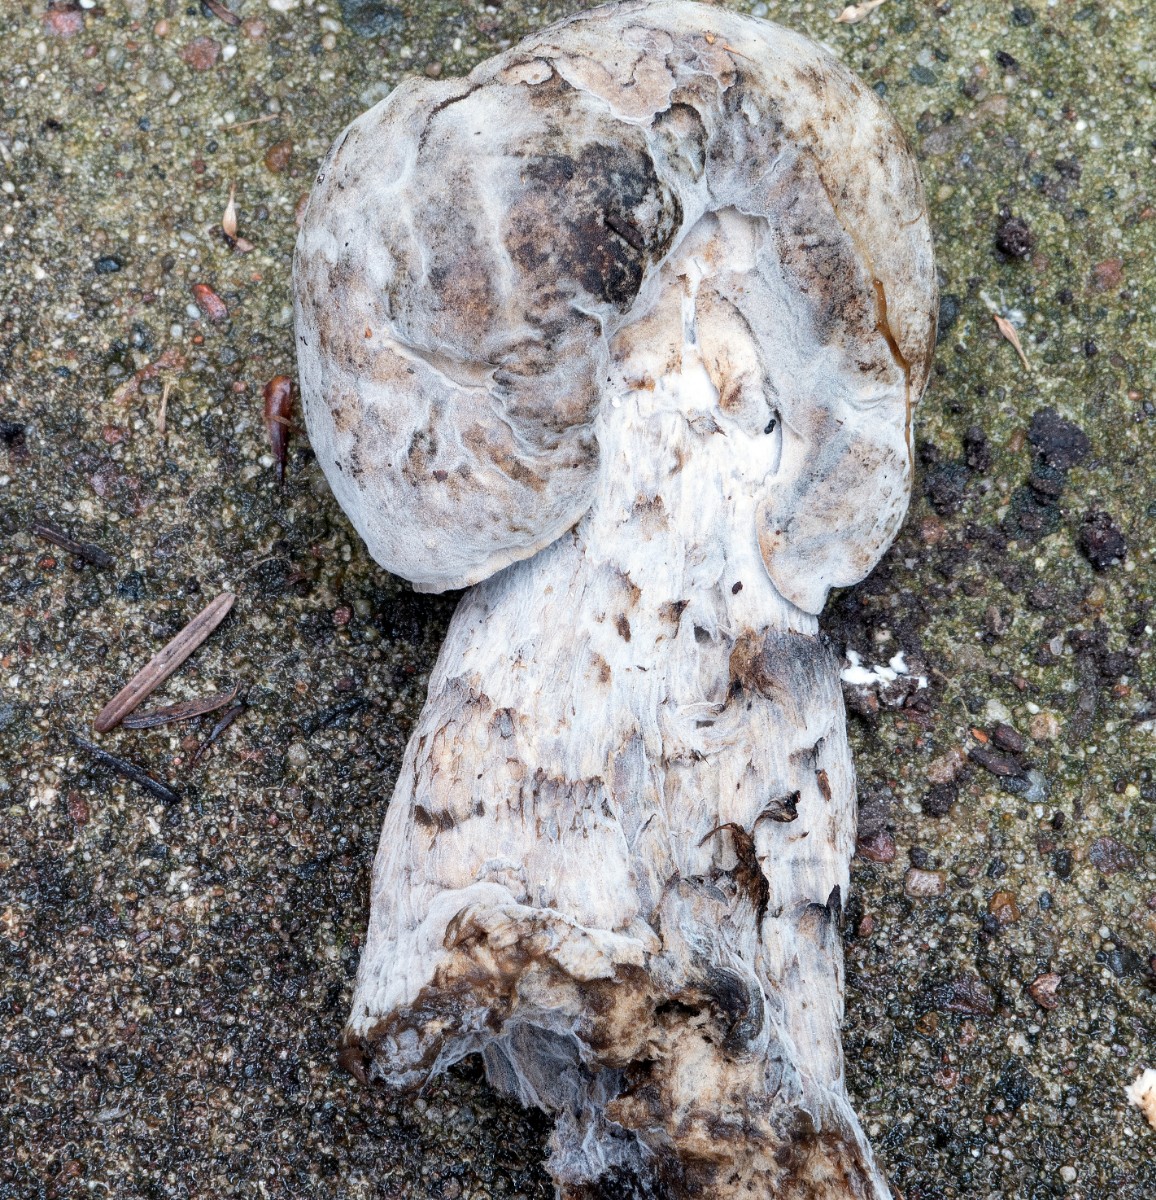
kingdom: Fungi
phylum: Ascomycota
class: Sordariomycetes
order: Hypocreales
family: Hypocreaceae
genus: Sepedonium
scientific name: Sepedonium tulasneanum
